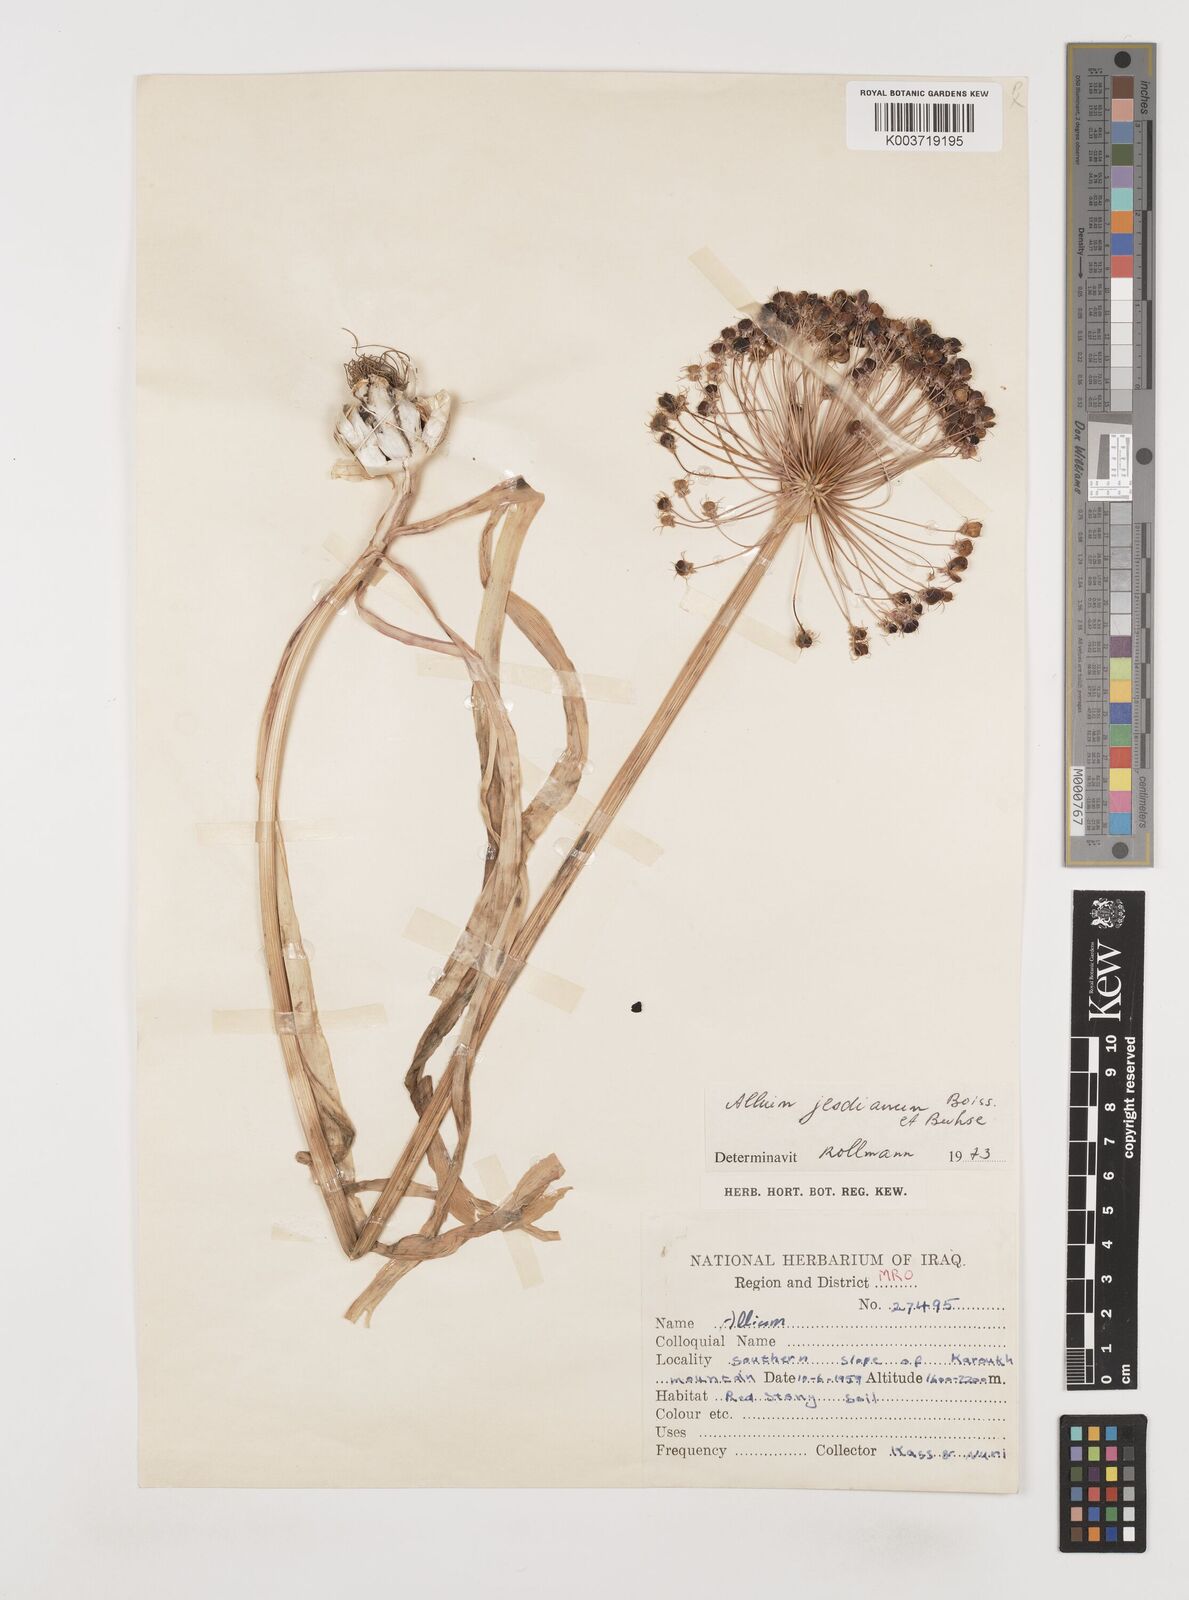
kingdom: Plantae
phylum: Tracheophyta
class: Liliopsida
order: Asparagales
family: Amaryllidaceae
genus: Allium
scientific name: Allium jesdianum
